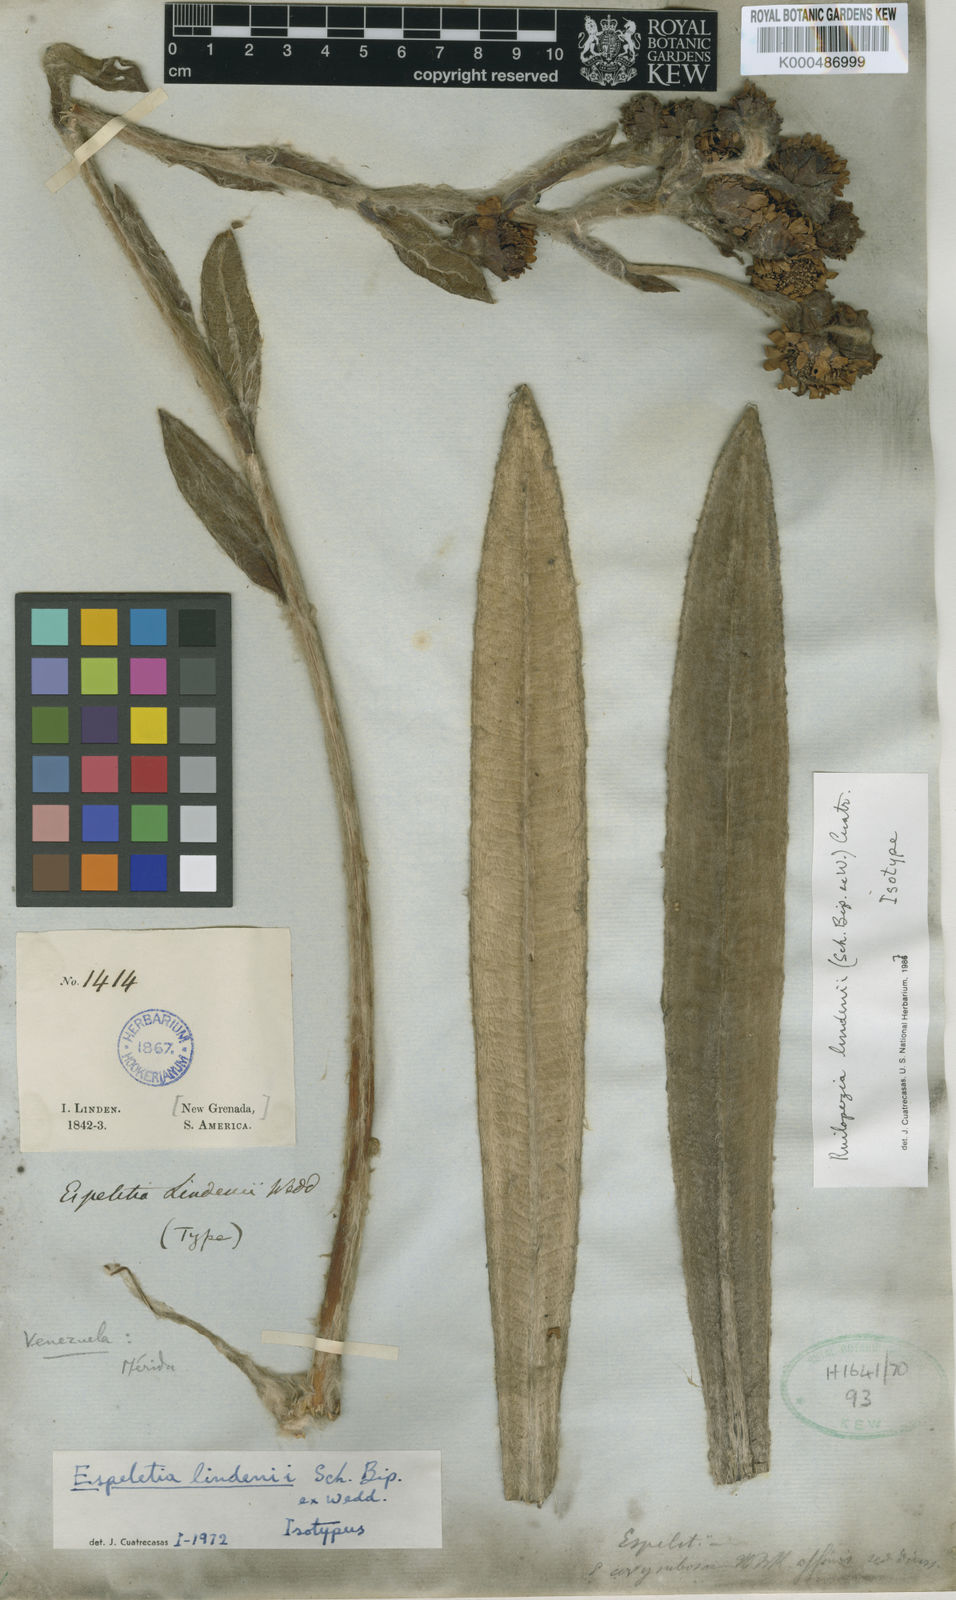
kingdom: Plantae
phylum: Tracheophyta
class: Magnoliopsida
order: Asterales
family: Asteraceae
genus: Espeletia
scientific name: Espeletia lindenii
